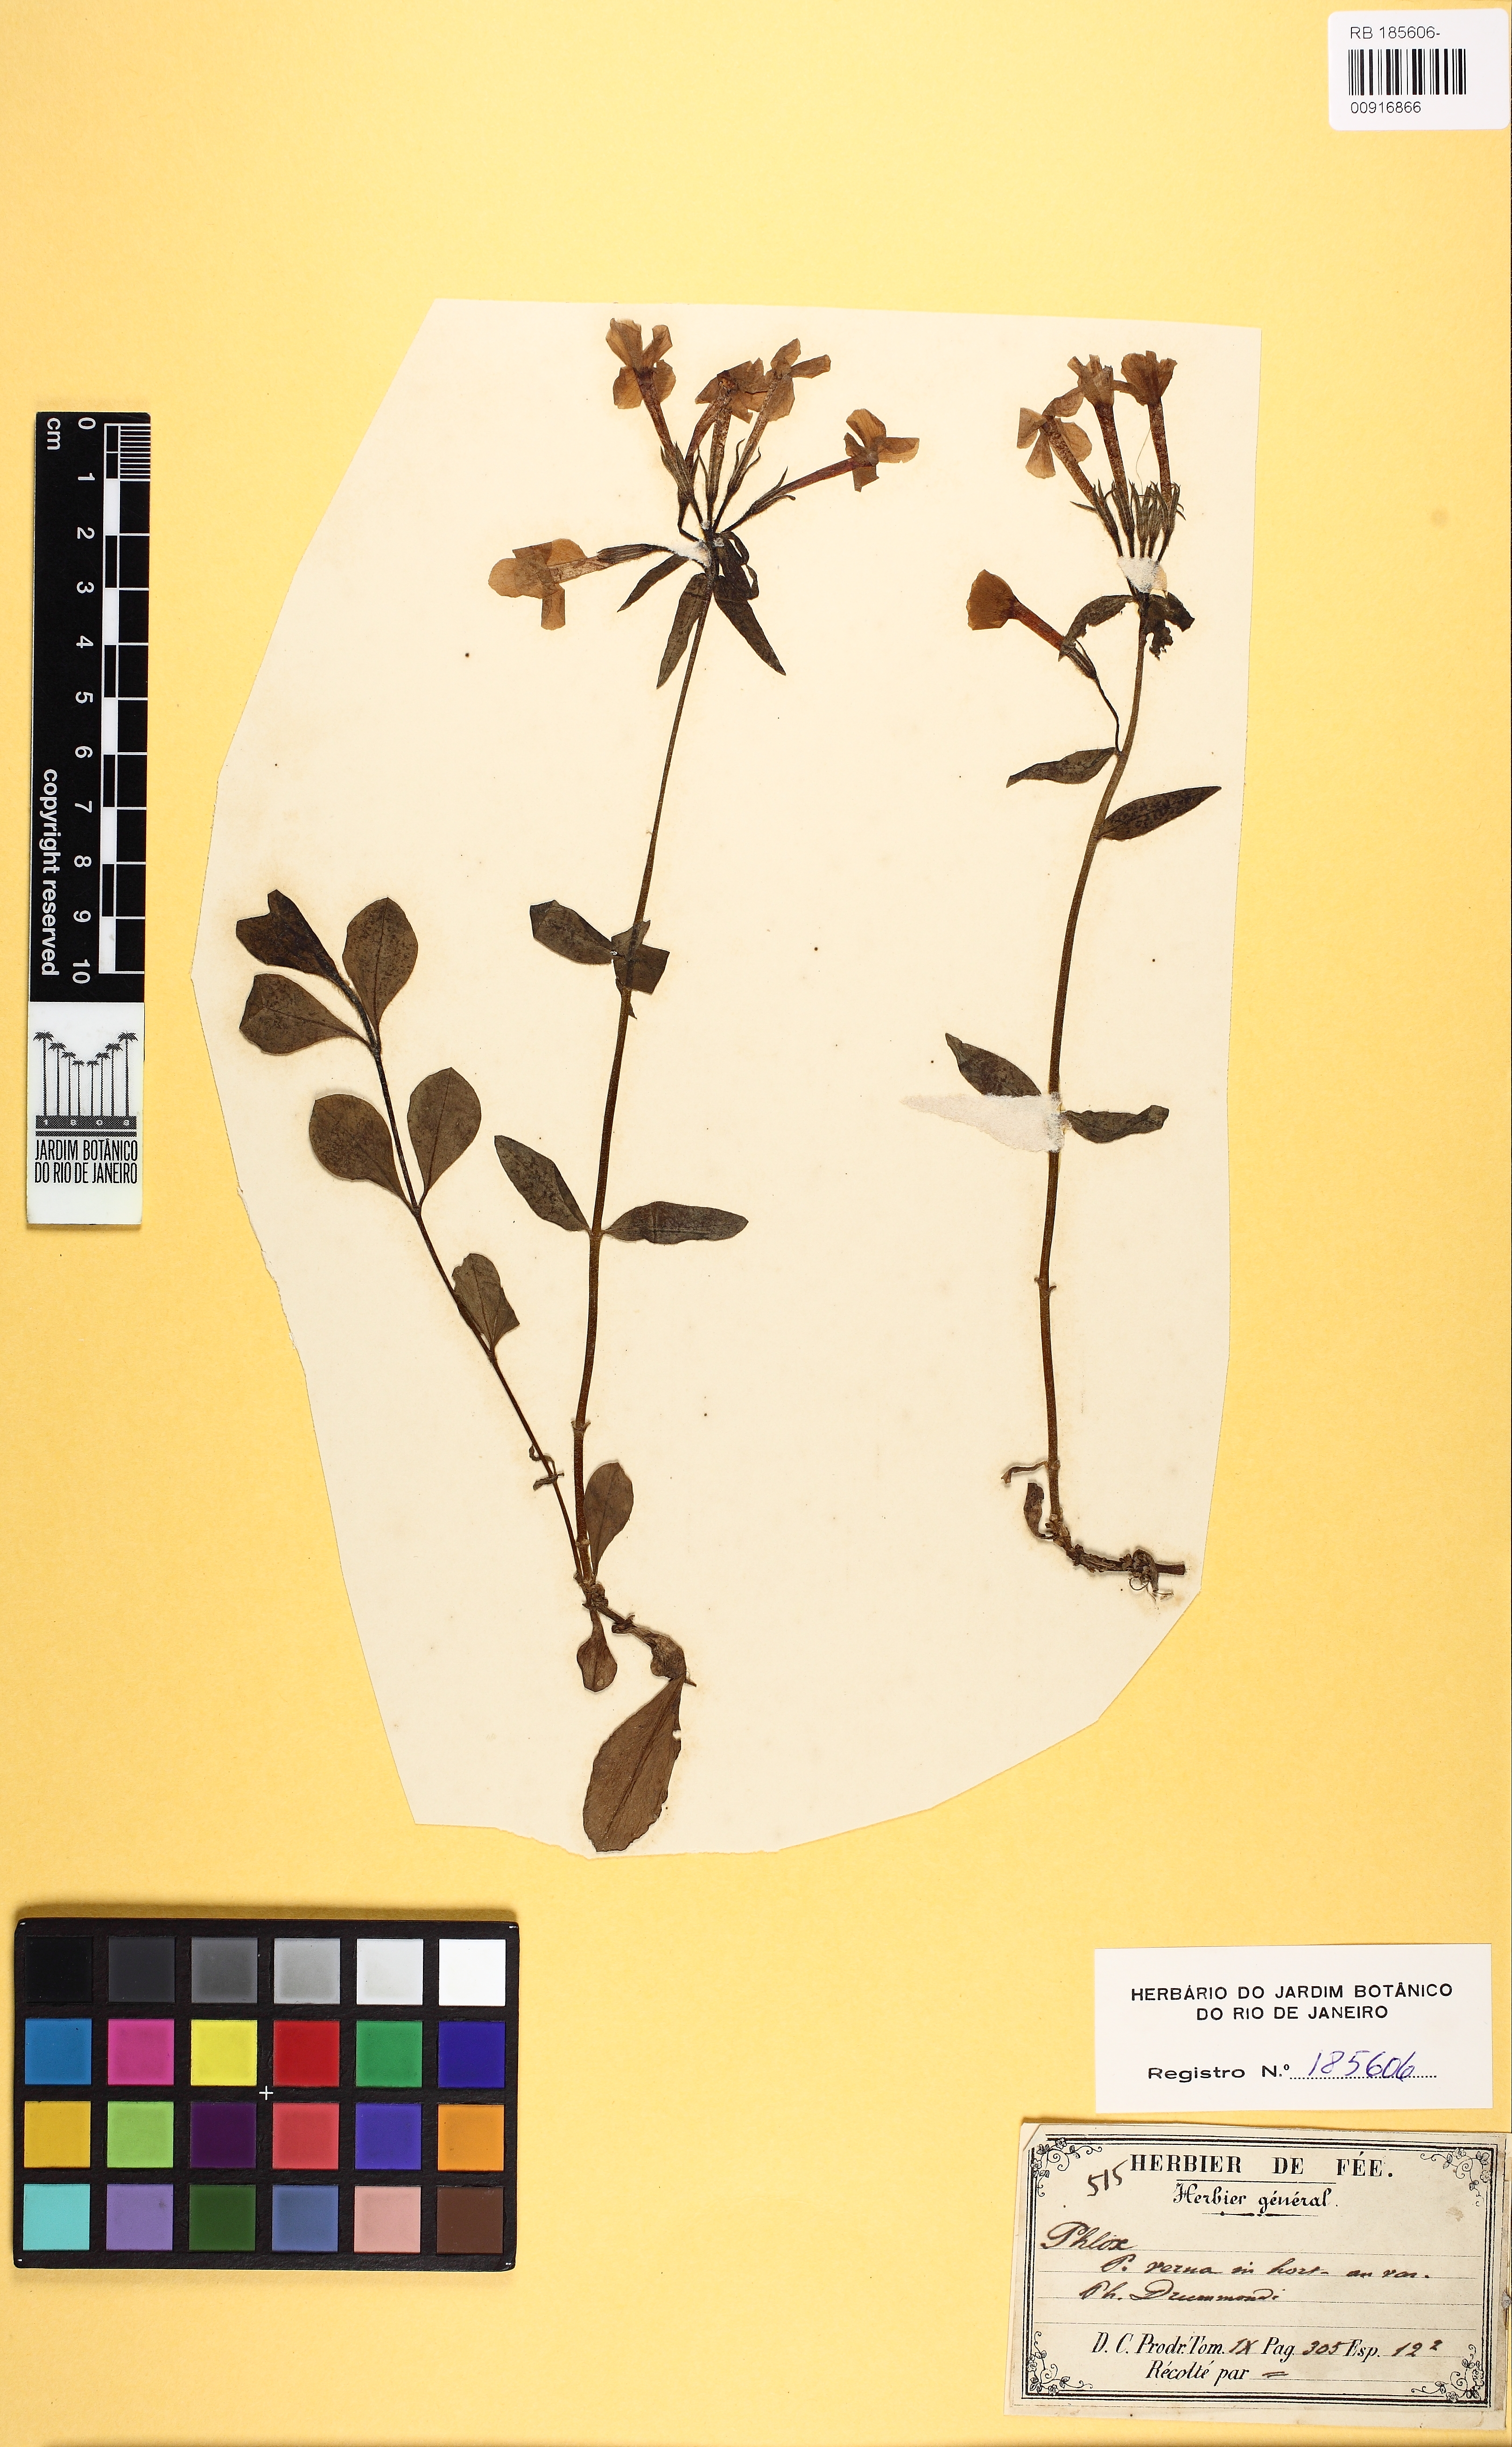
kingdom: Plantae
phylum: Tracheophyta
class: Magnoliopsida
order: Ericales
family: Polemoniaceae
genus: Phlox
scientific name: Phlox
